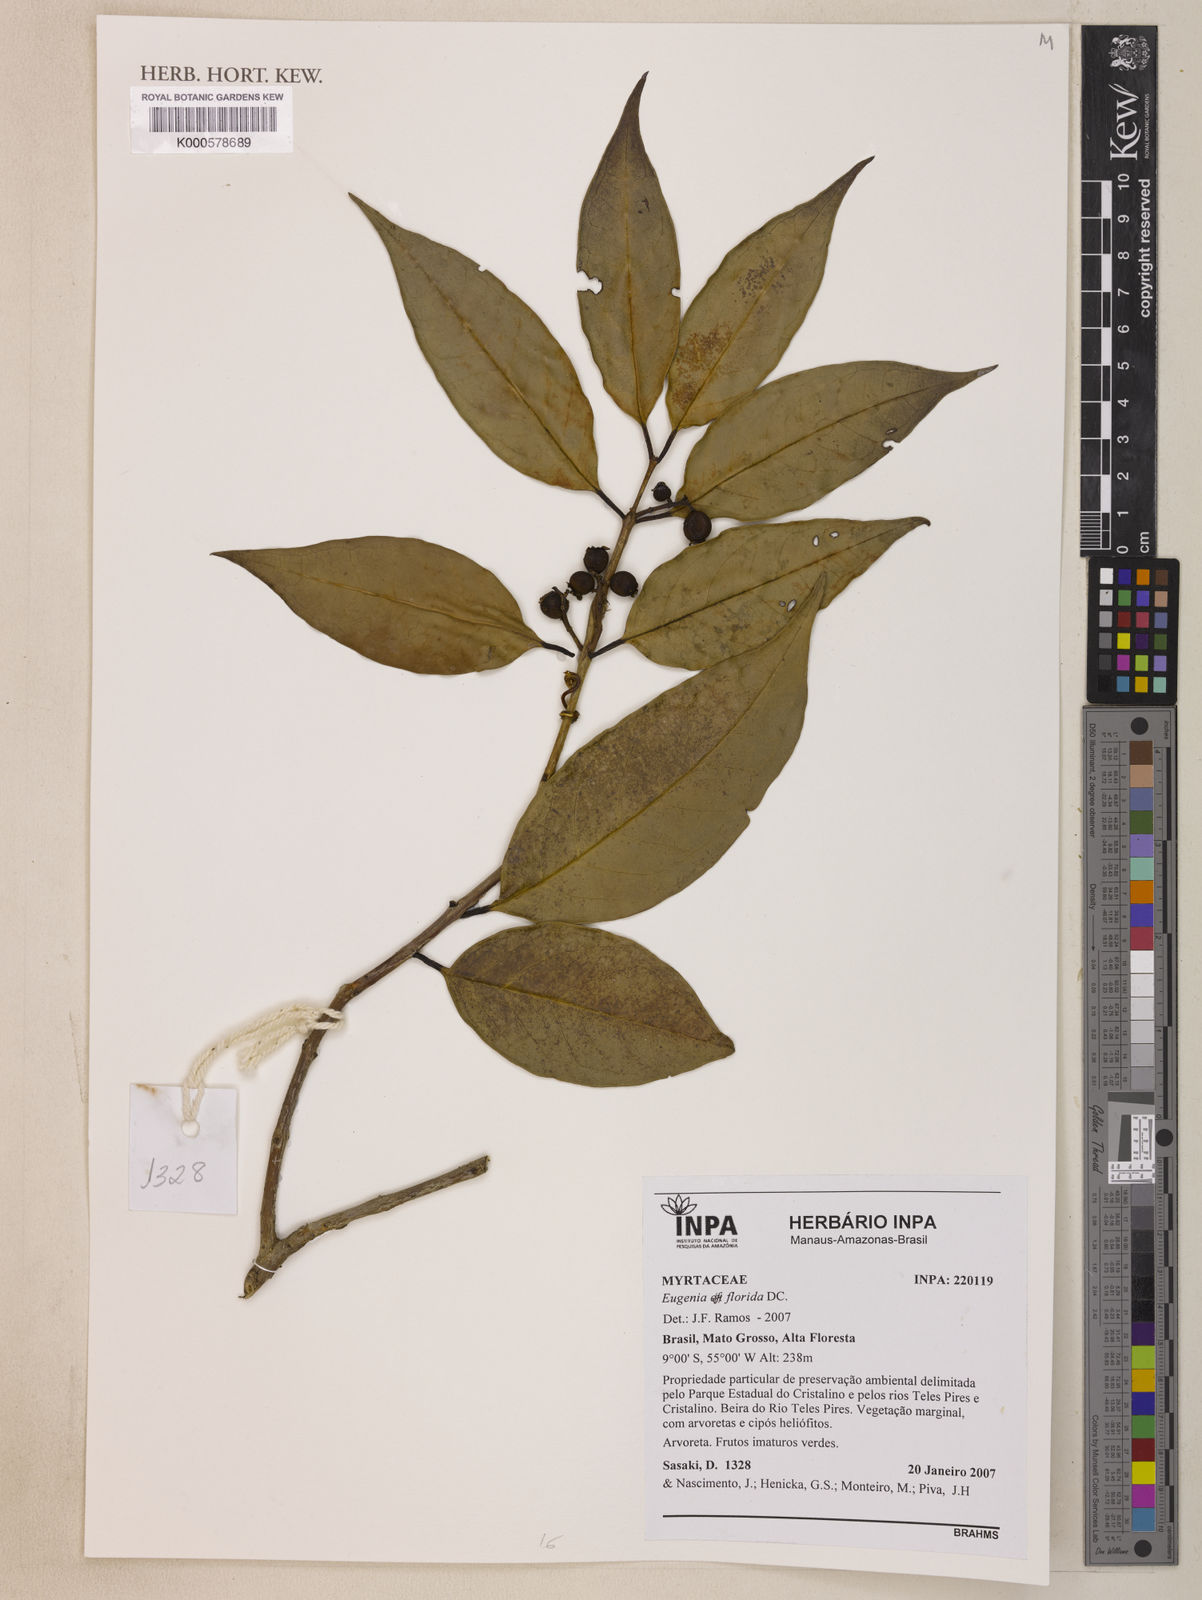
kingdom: Plantae
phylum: Tracheophyta
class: Magnoliopsida
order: Myrtales
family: Myrtaceae
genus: Eugenia
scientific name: Eugenia florida
